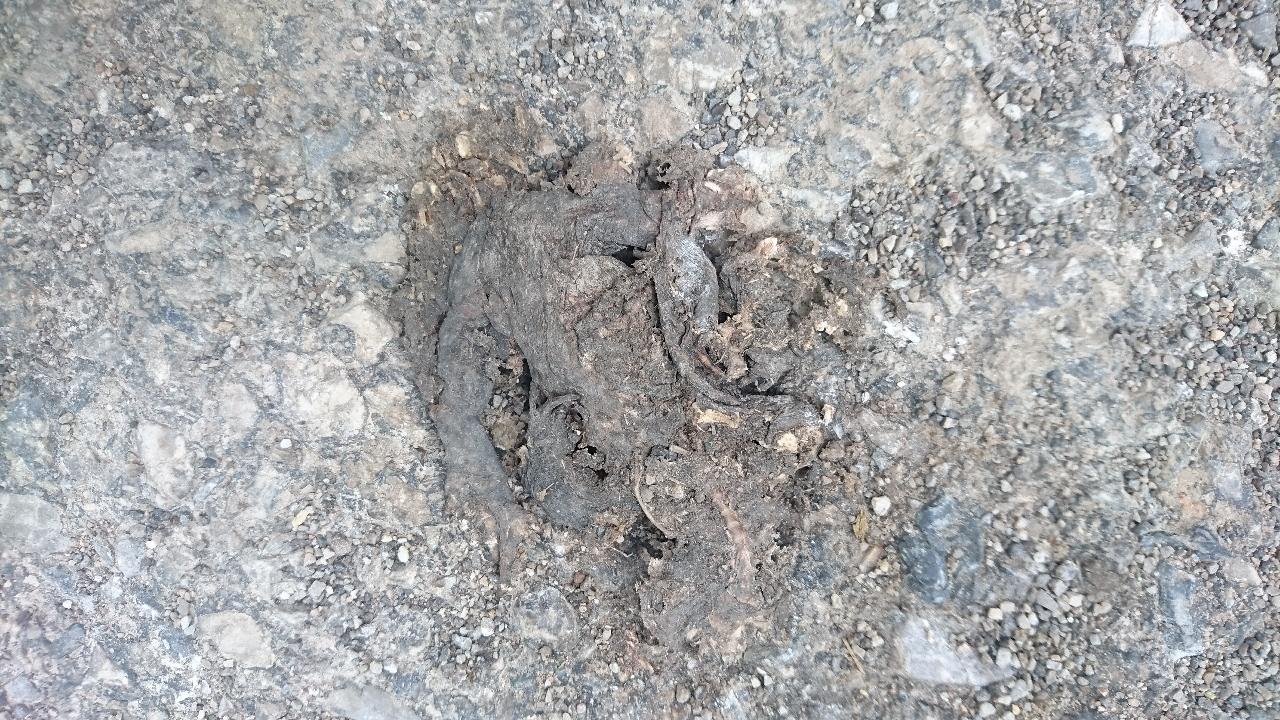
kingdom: Animalia
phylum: Chordata
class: Amphibia
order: Anura
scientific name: Anura
